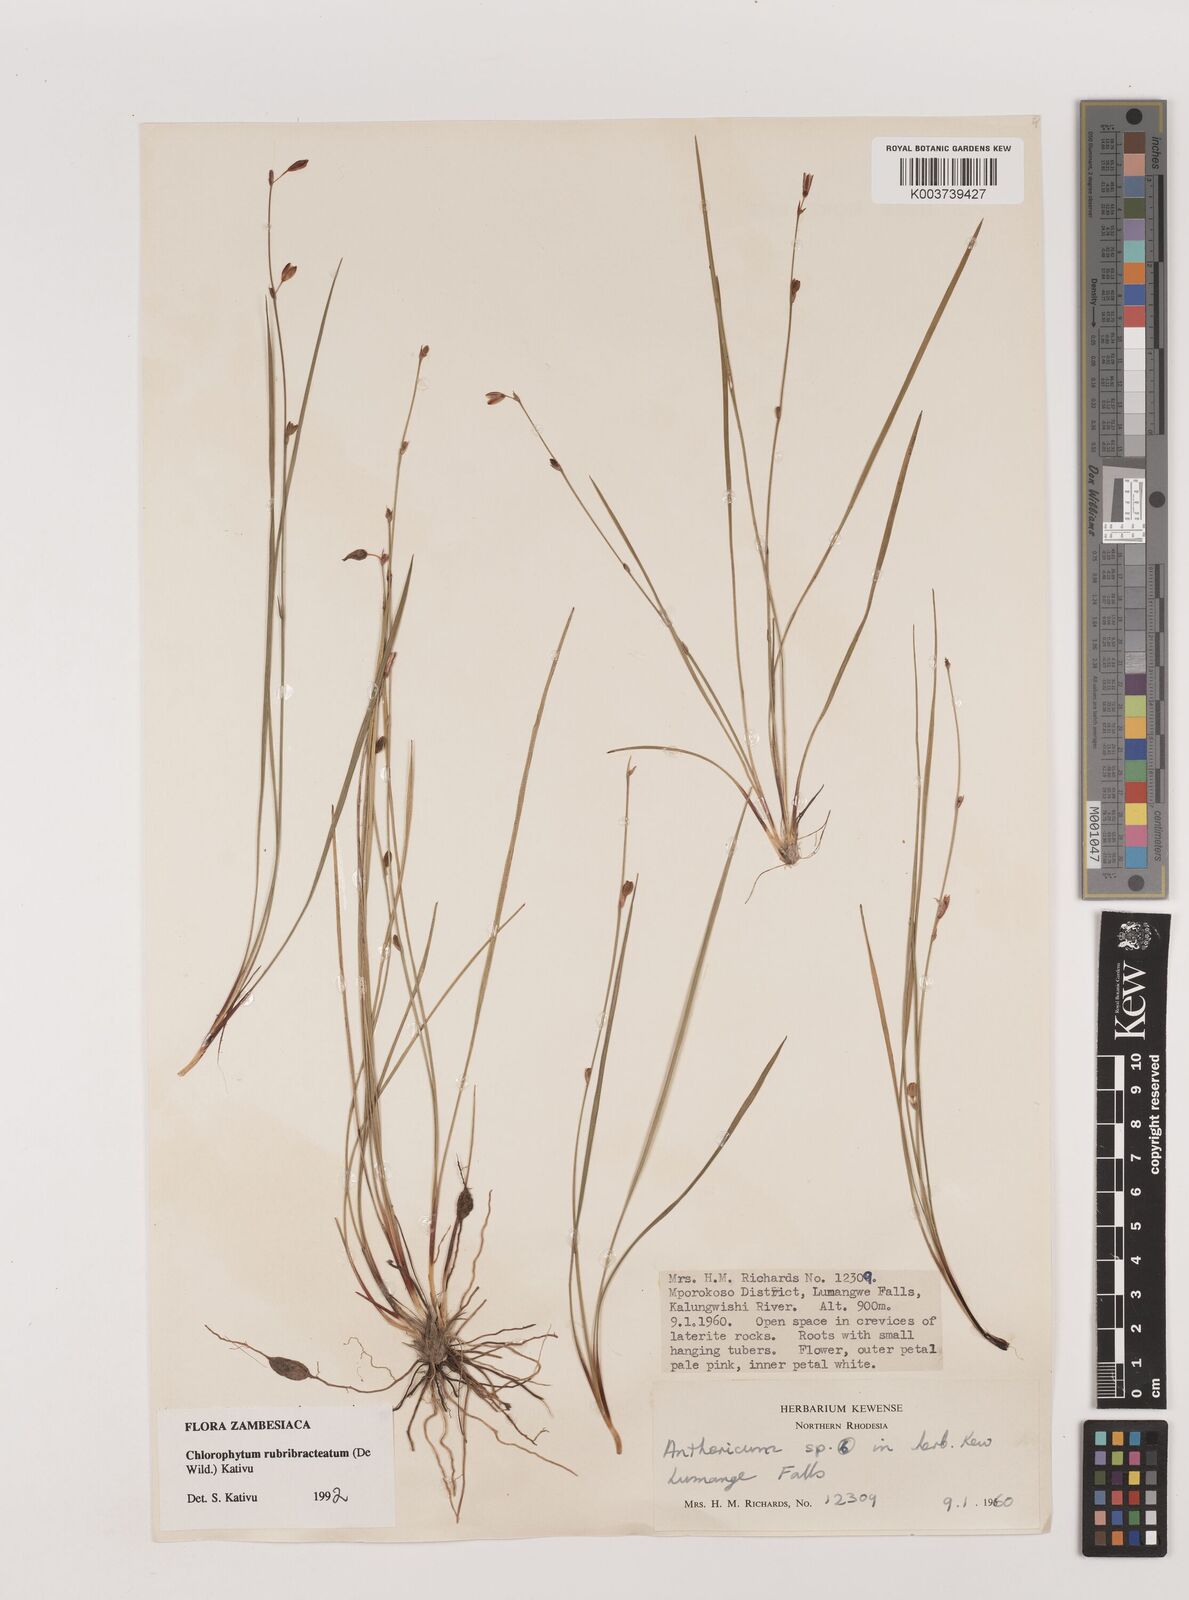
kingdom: Plantae
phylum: Tracheophyta
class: Liliopsida
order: Asparagales
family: Asparagaceae
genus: Chlorophytum
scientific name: Chlorophytum rubribracteatum
